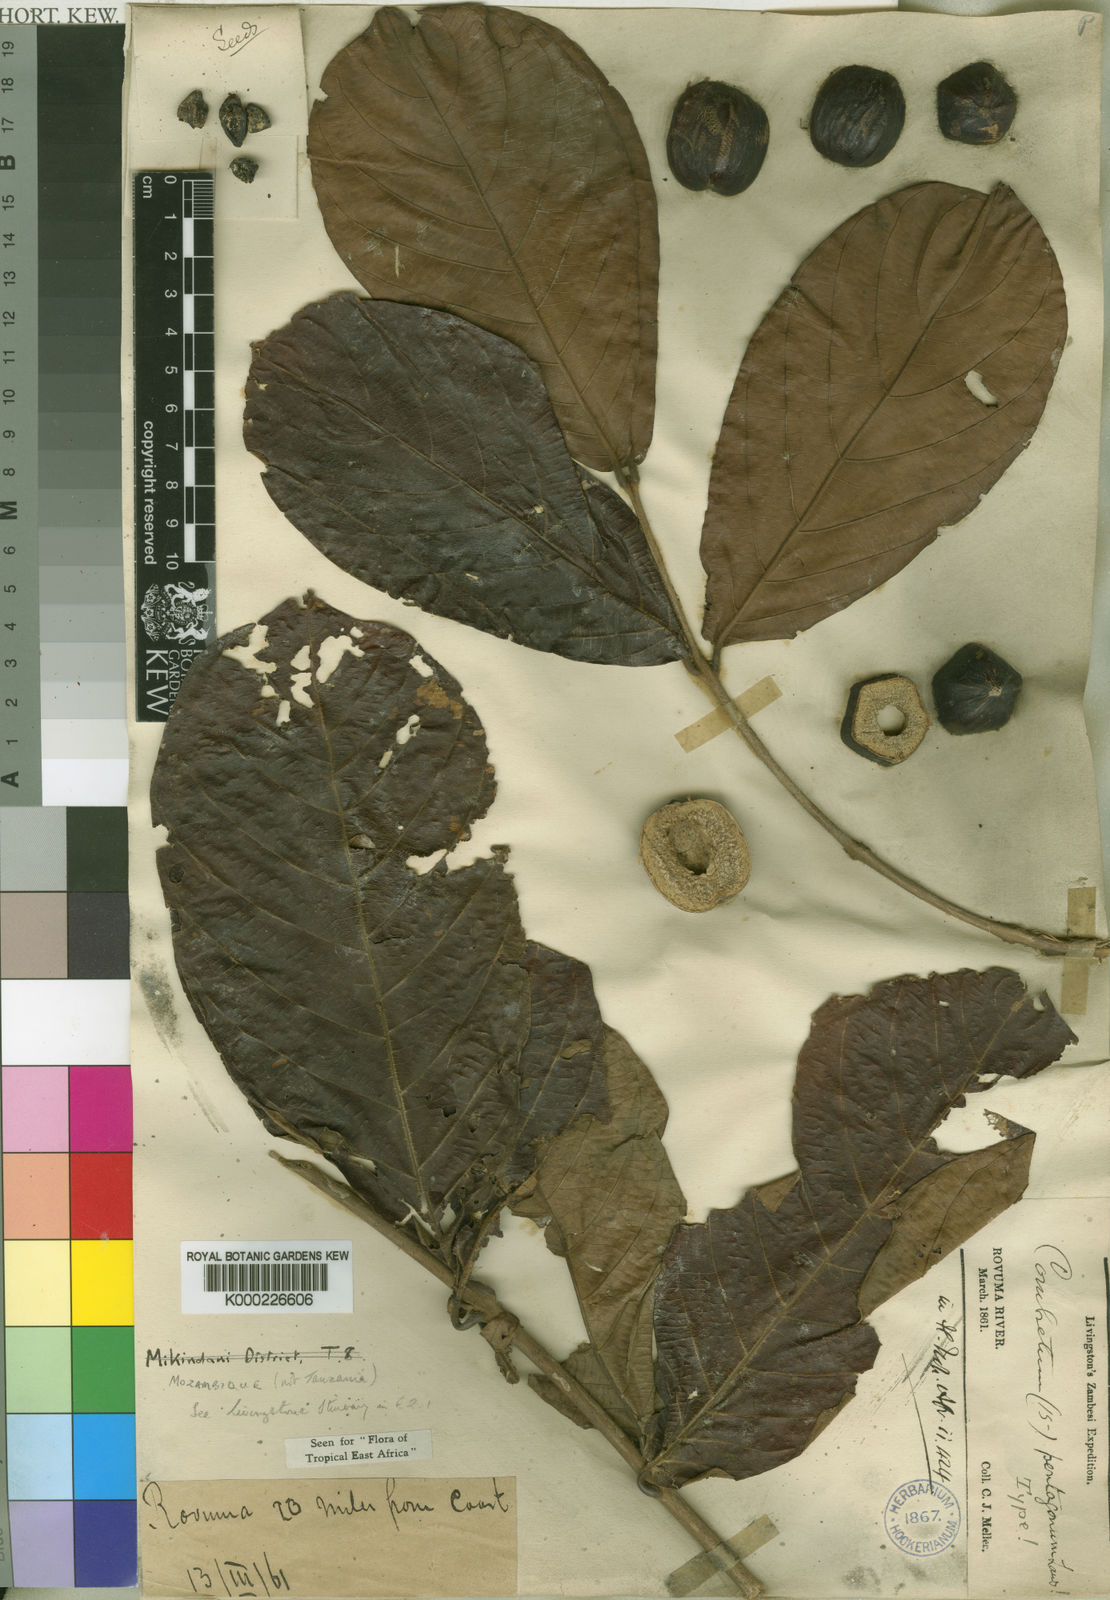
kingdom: Plantae
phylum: Tracheophyta
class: Magnoliopsida
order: Myrtales
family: Combretaceae
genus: Combretum
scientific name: Combretum pentagonum
